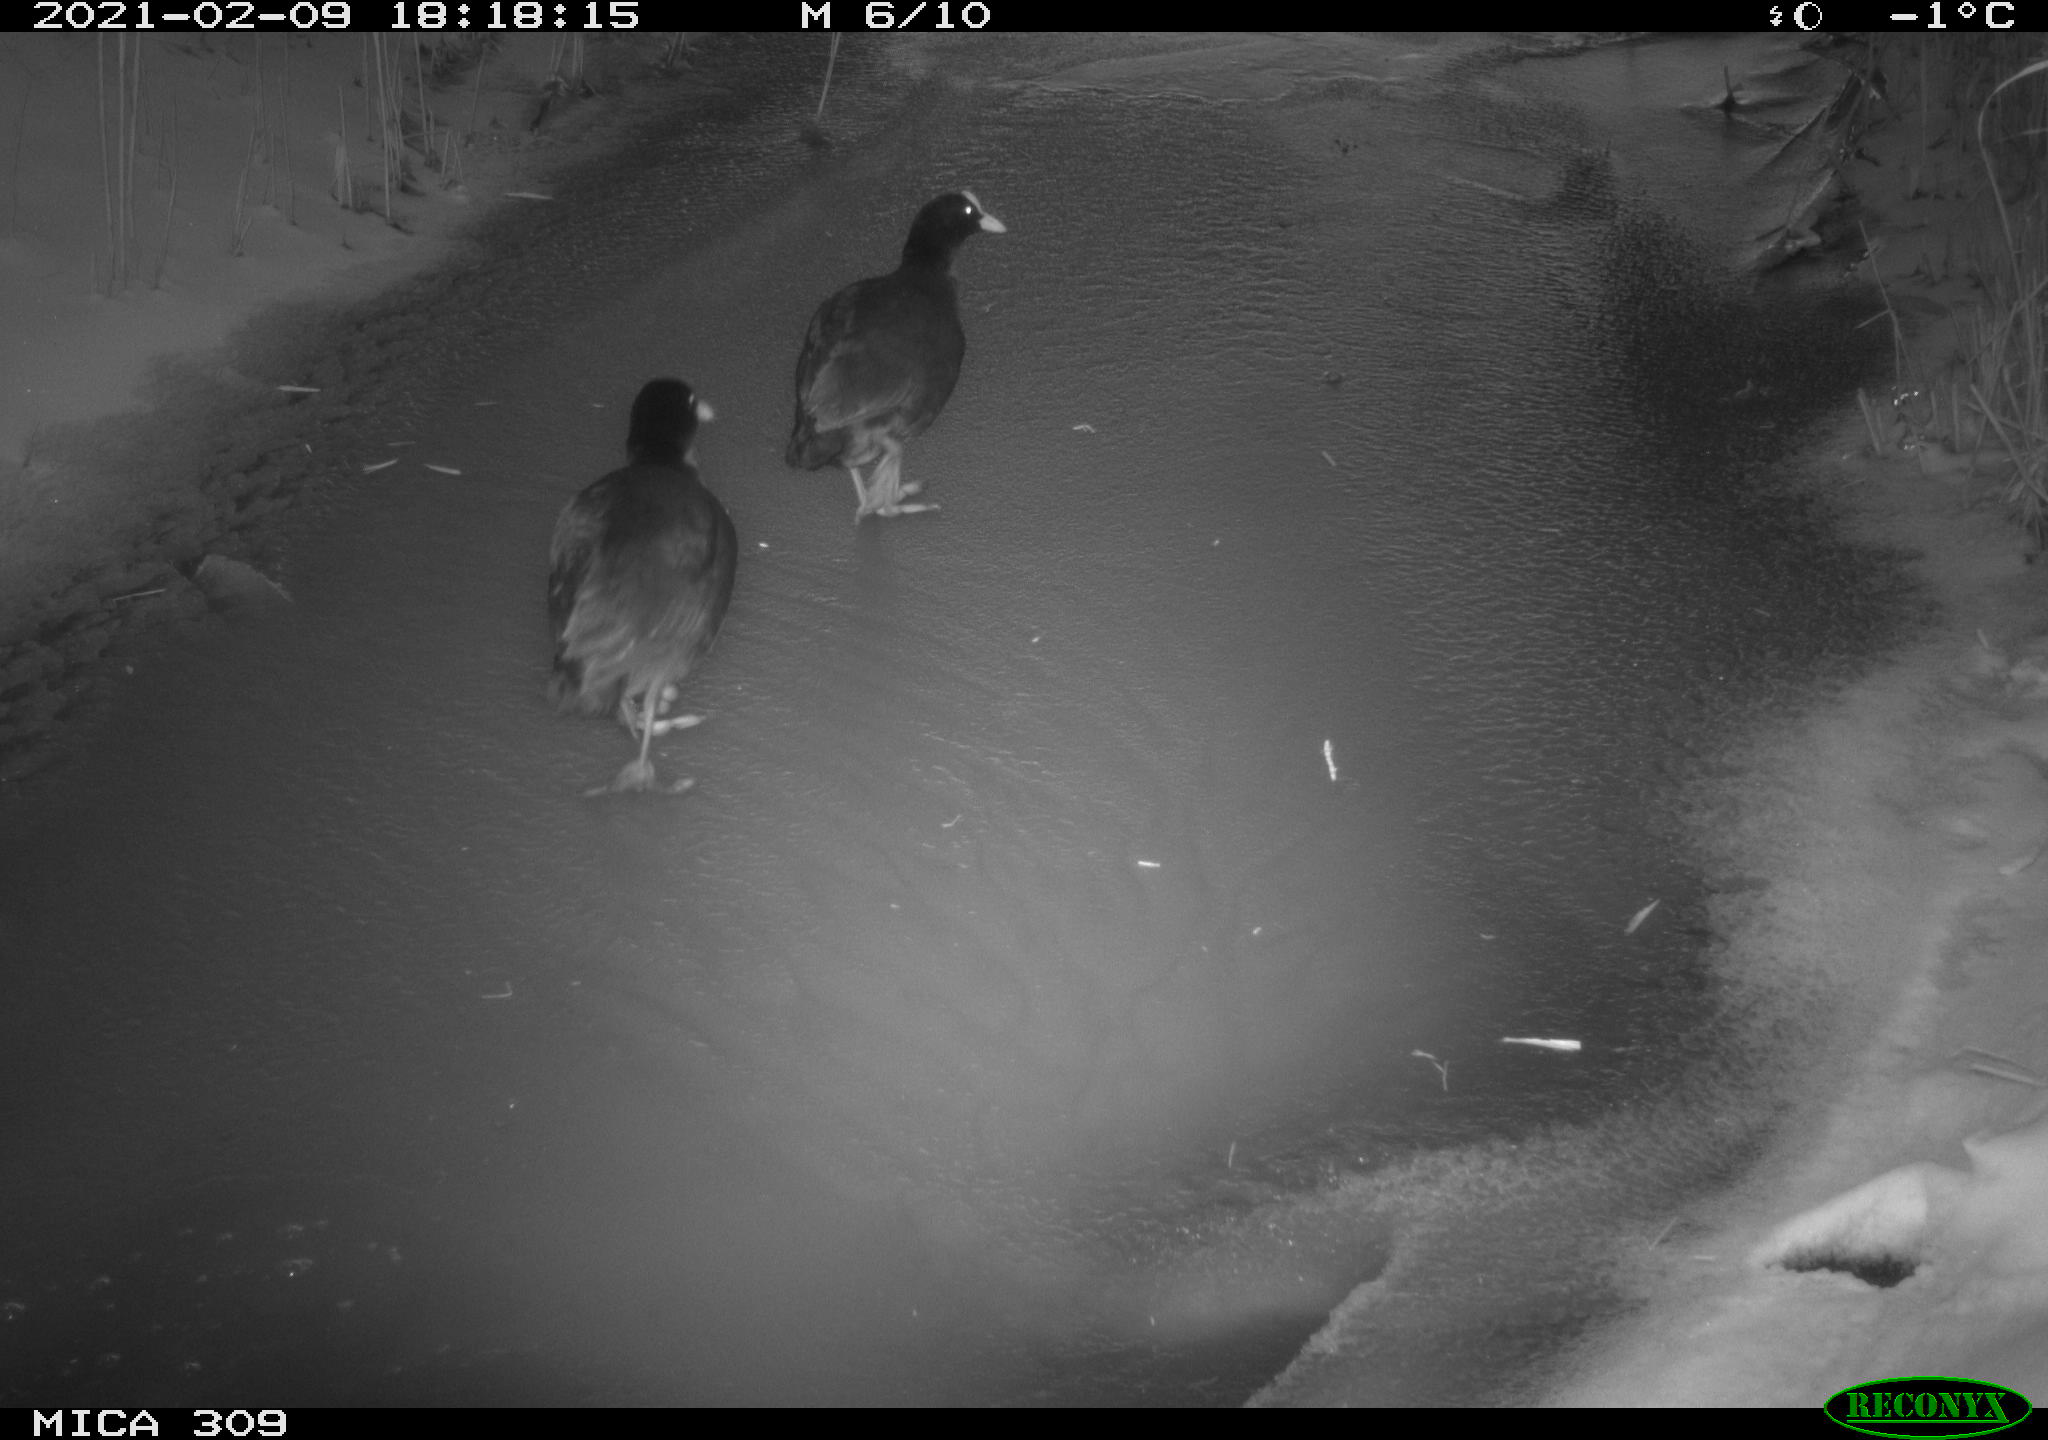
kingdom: Animalia
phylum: Chordata
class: Aves
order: Gruiformes
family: Rallidae
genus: Gallinula
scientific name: Gallinula chloropus
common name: Common moorhen
